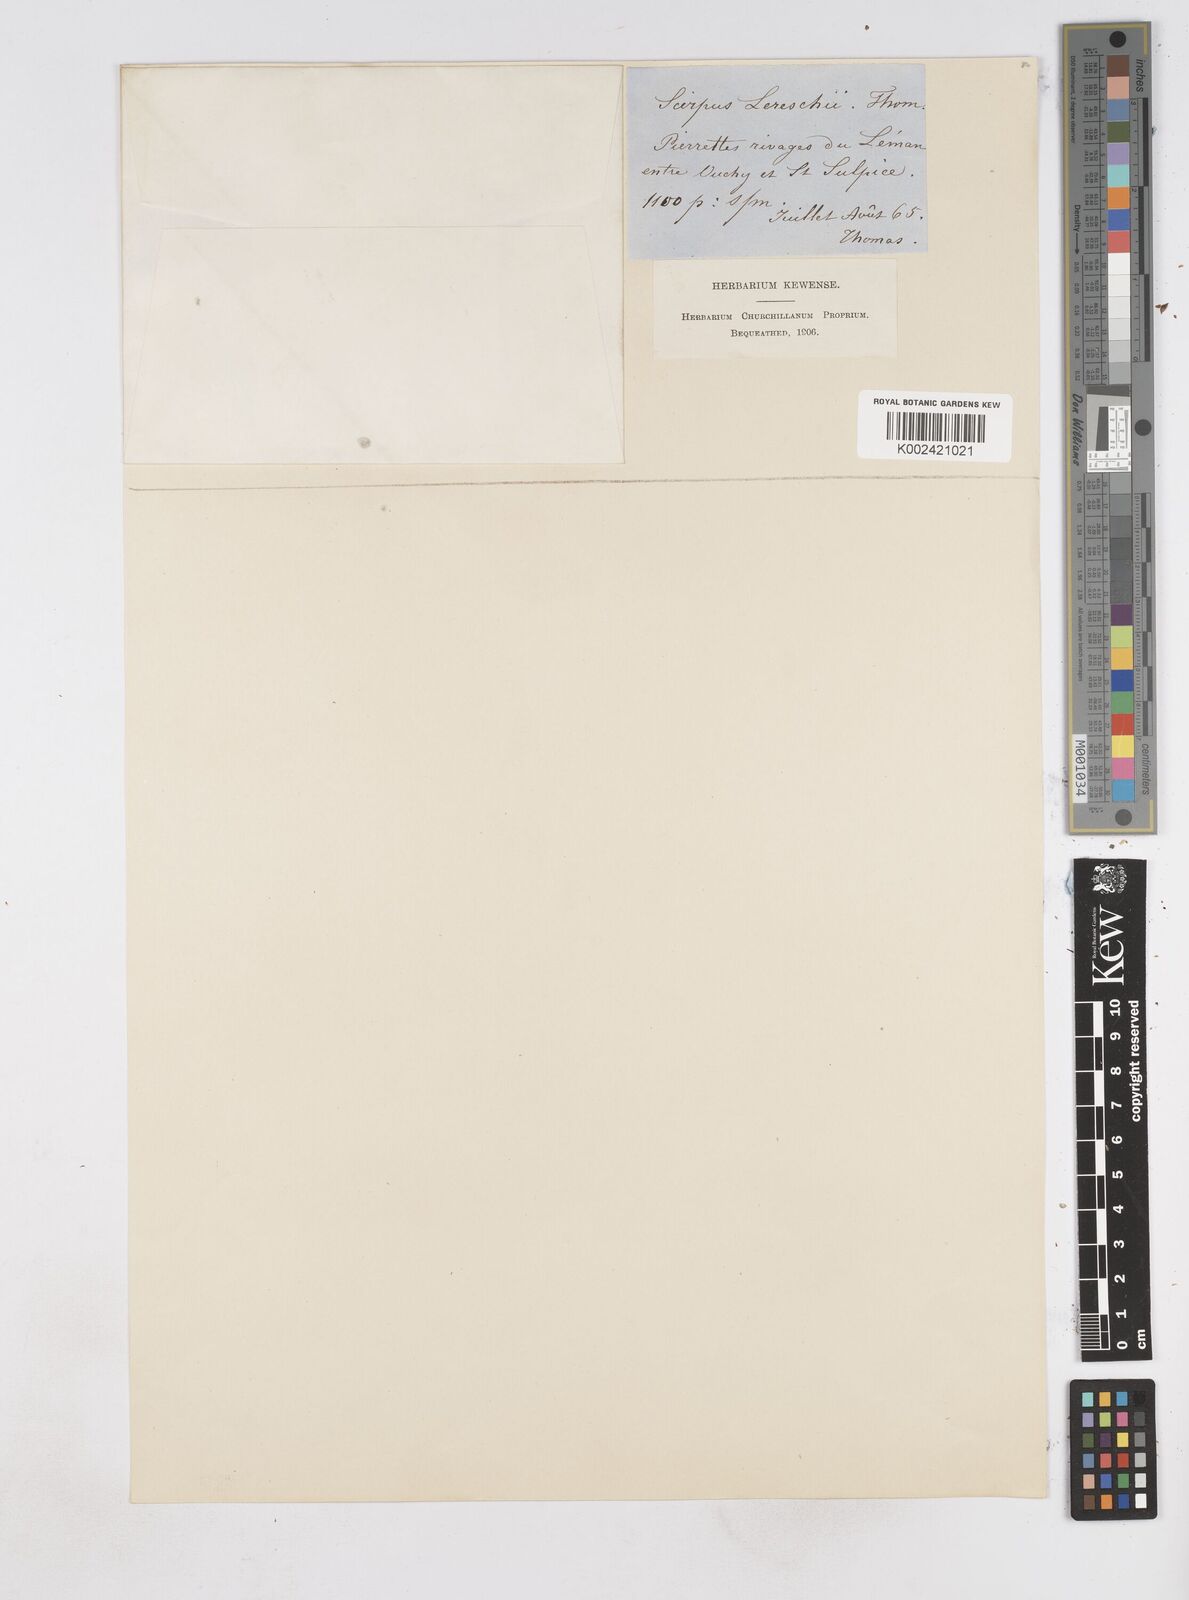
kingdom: Plantae
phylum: Tracheophyta
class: Liliopsida
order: Poales
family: Cyperaceae
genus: Eleocharis
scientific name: Eleocharis atropurpurea
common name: Purple spikerush
